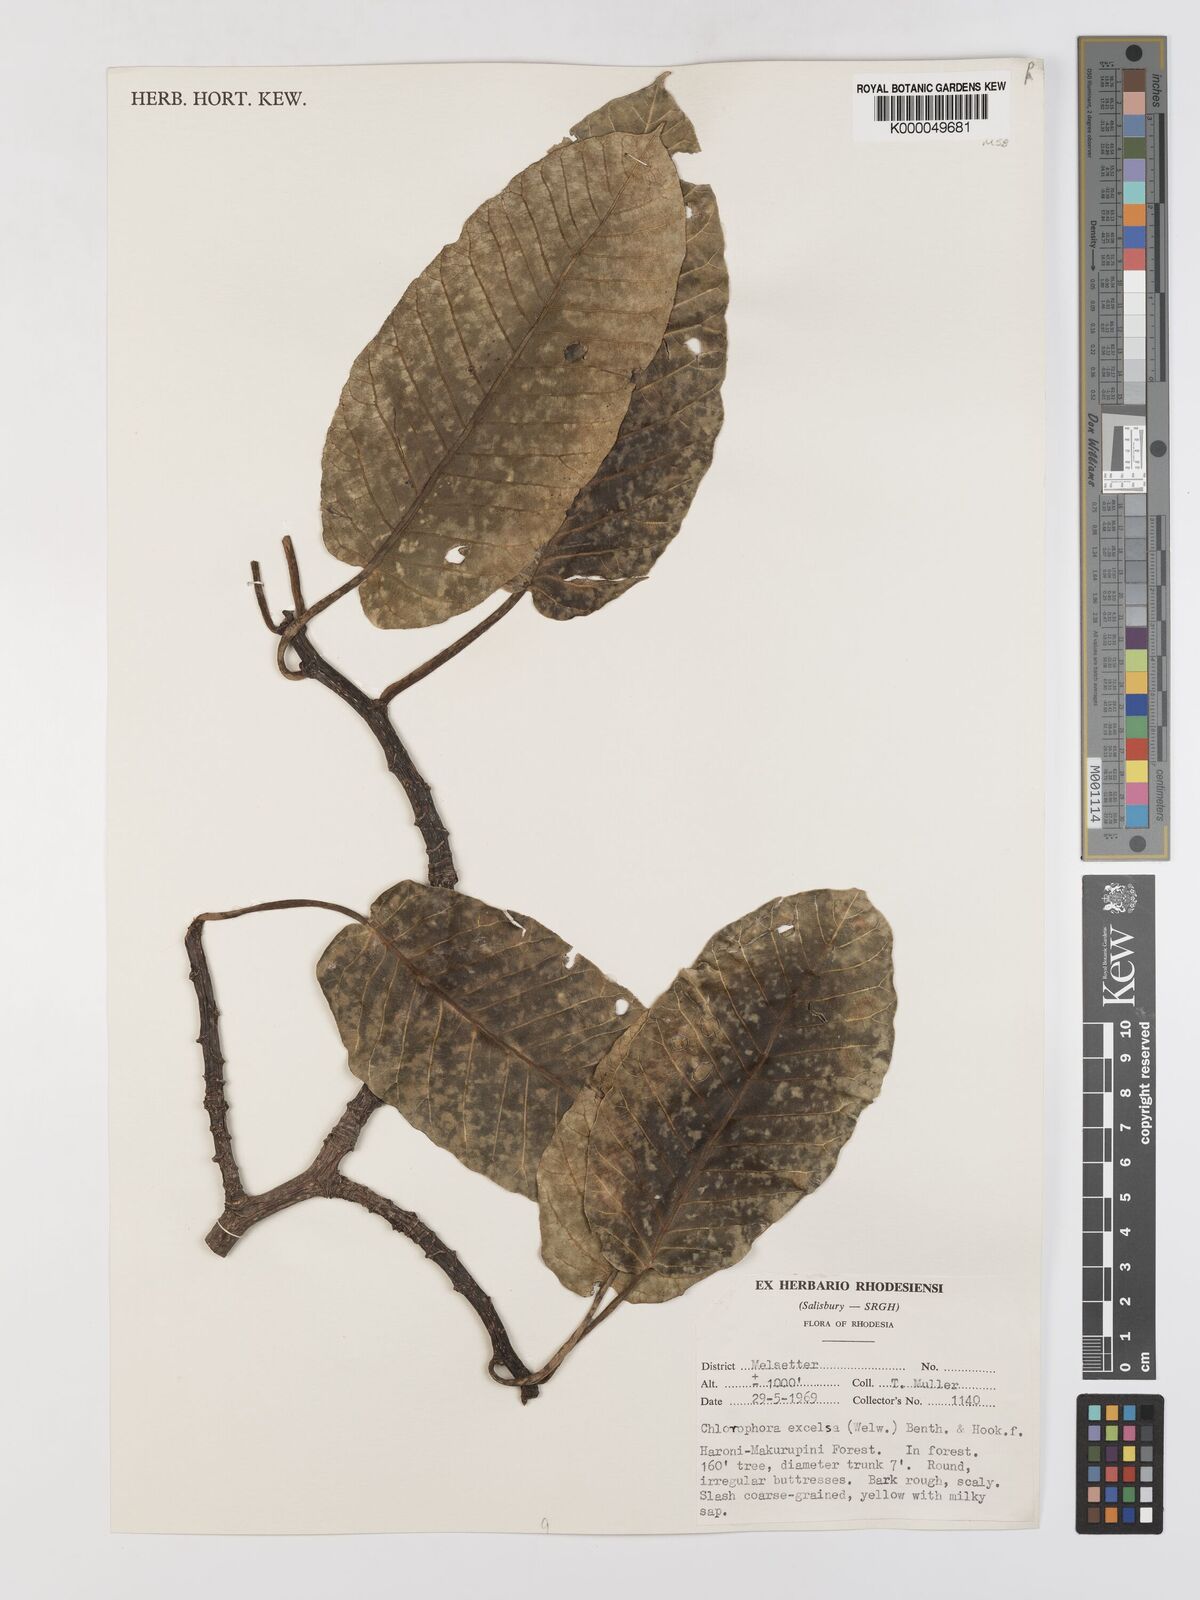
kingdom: Plantae
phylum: Tracheophyta
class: Magnoliopsida
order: Rosales
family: Moraceae
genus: Milicia
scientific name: Milicia excelsa
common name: African teak
